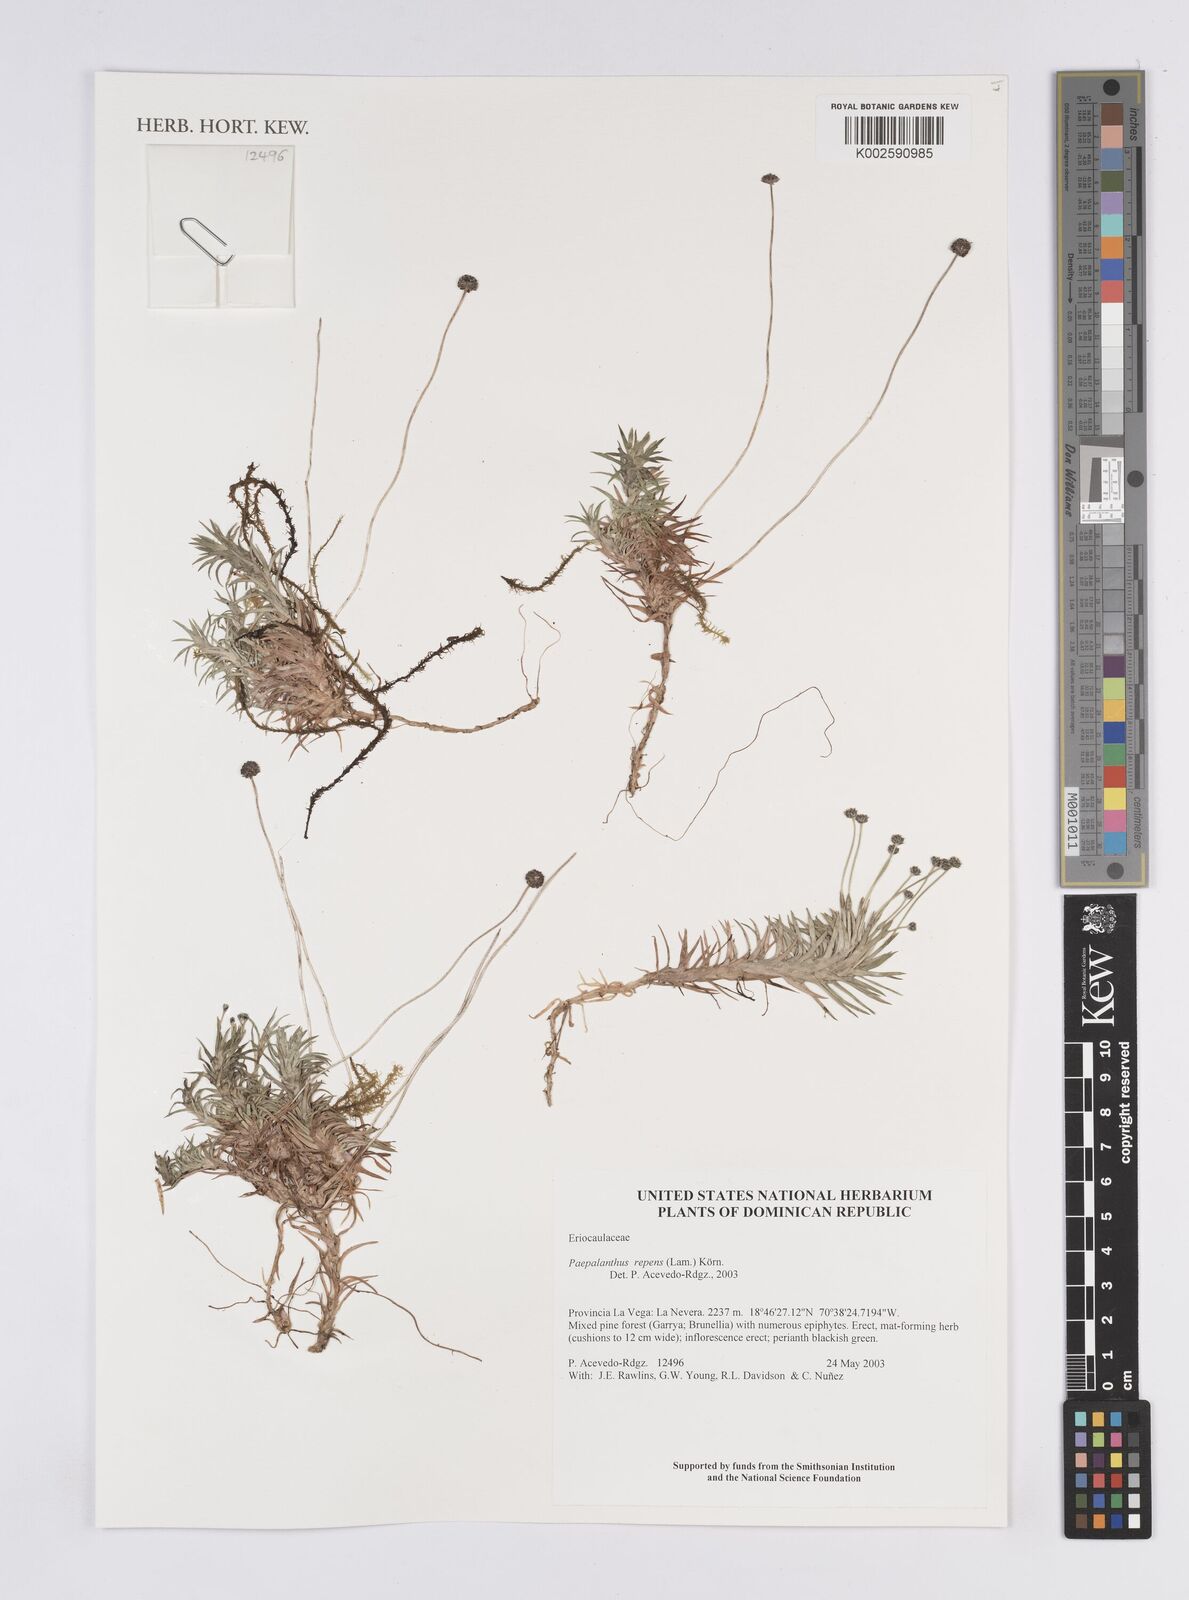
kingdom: Plantae
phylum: Tracheophyta
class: Liliopsida
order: Poales
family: Eriocaulaceae
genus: Paepalanthus
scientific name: Paepalanthus repens
